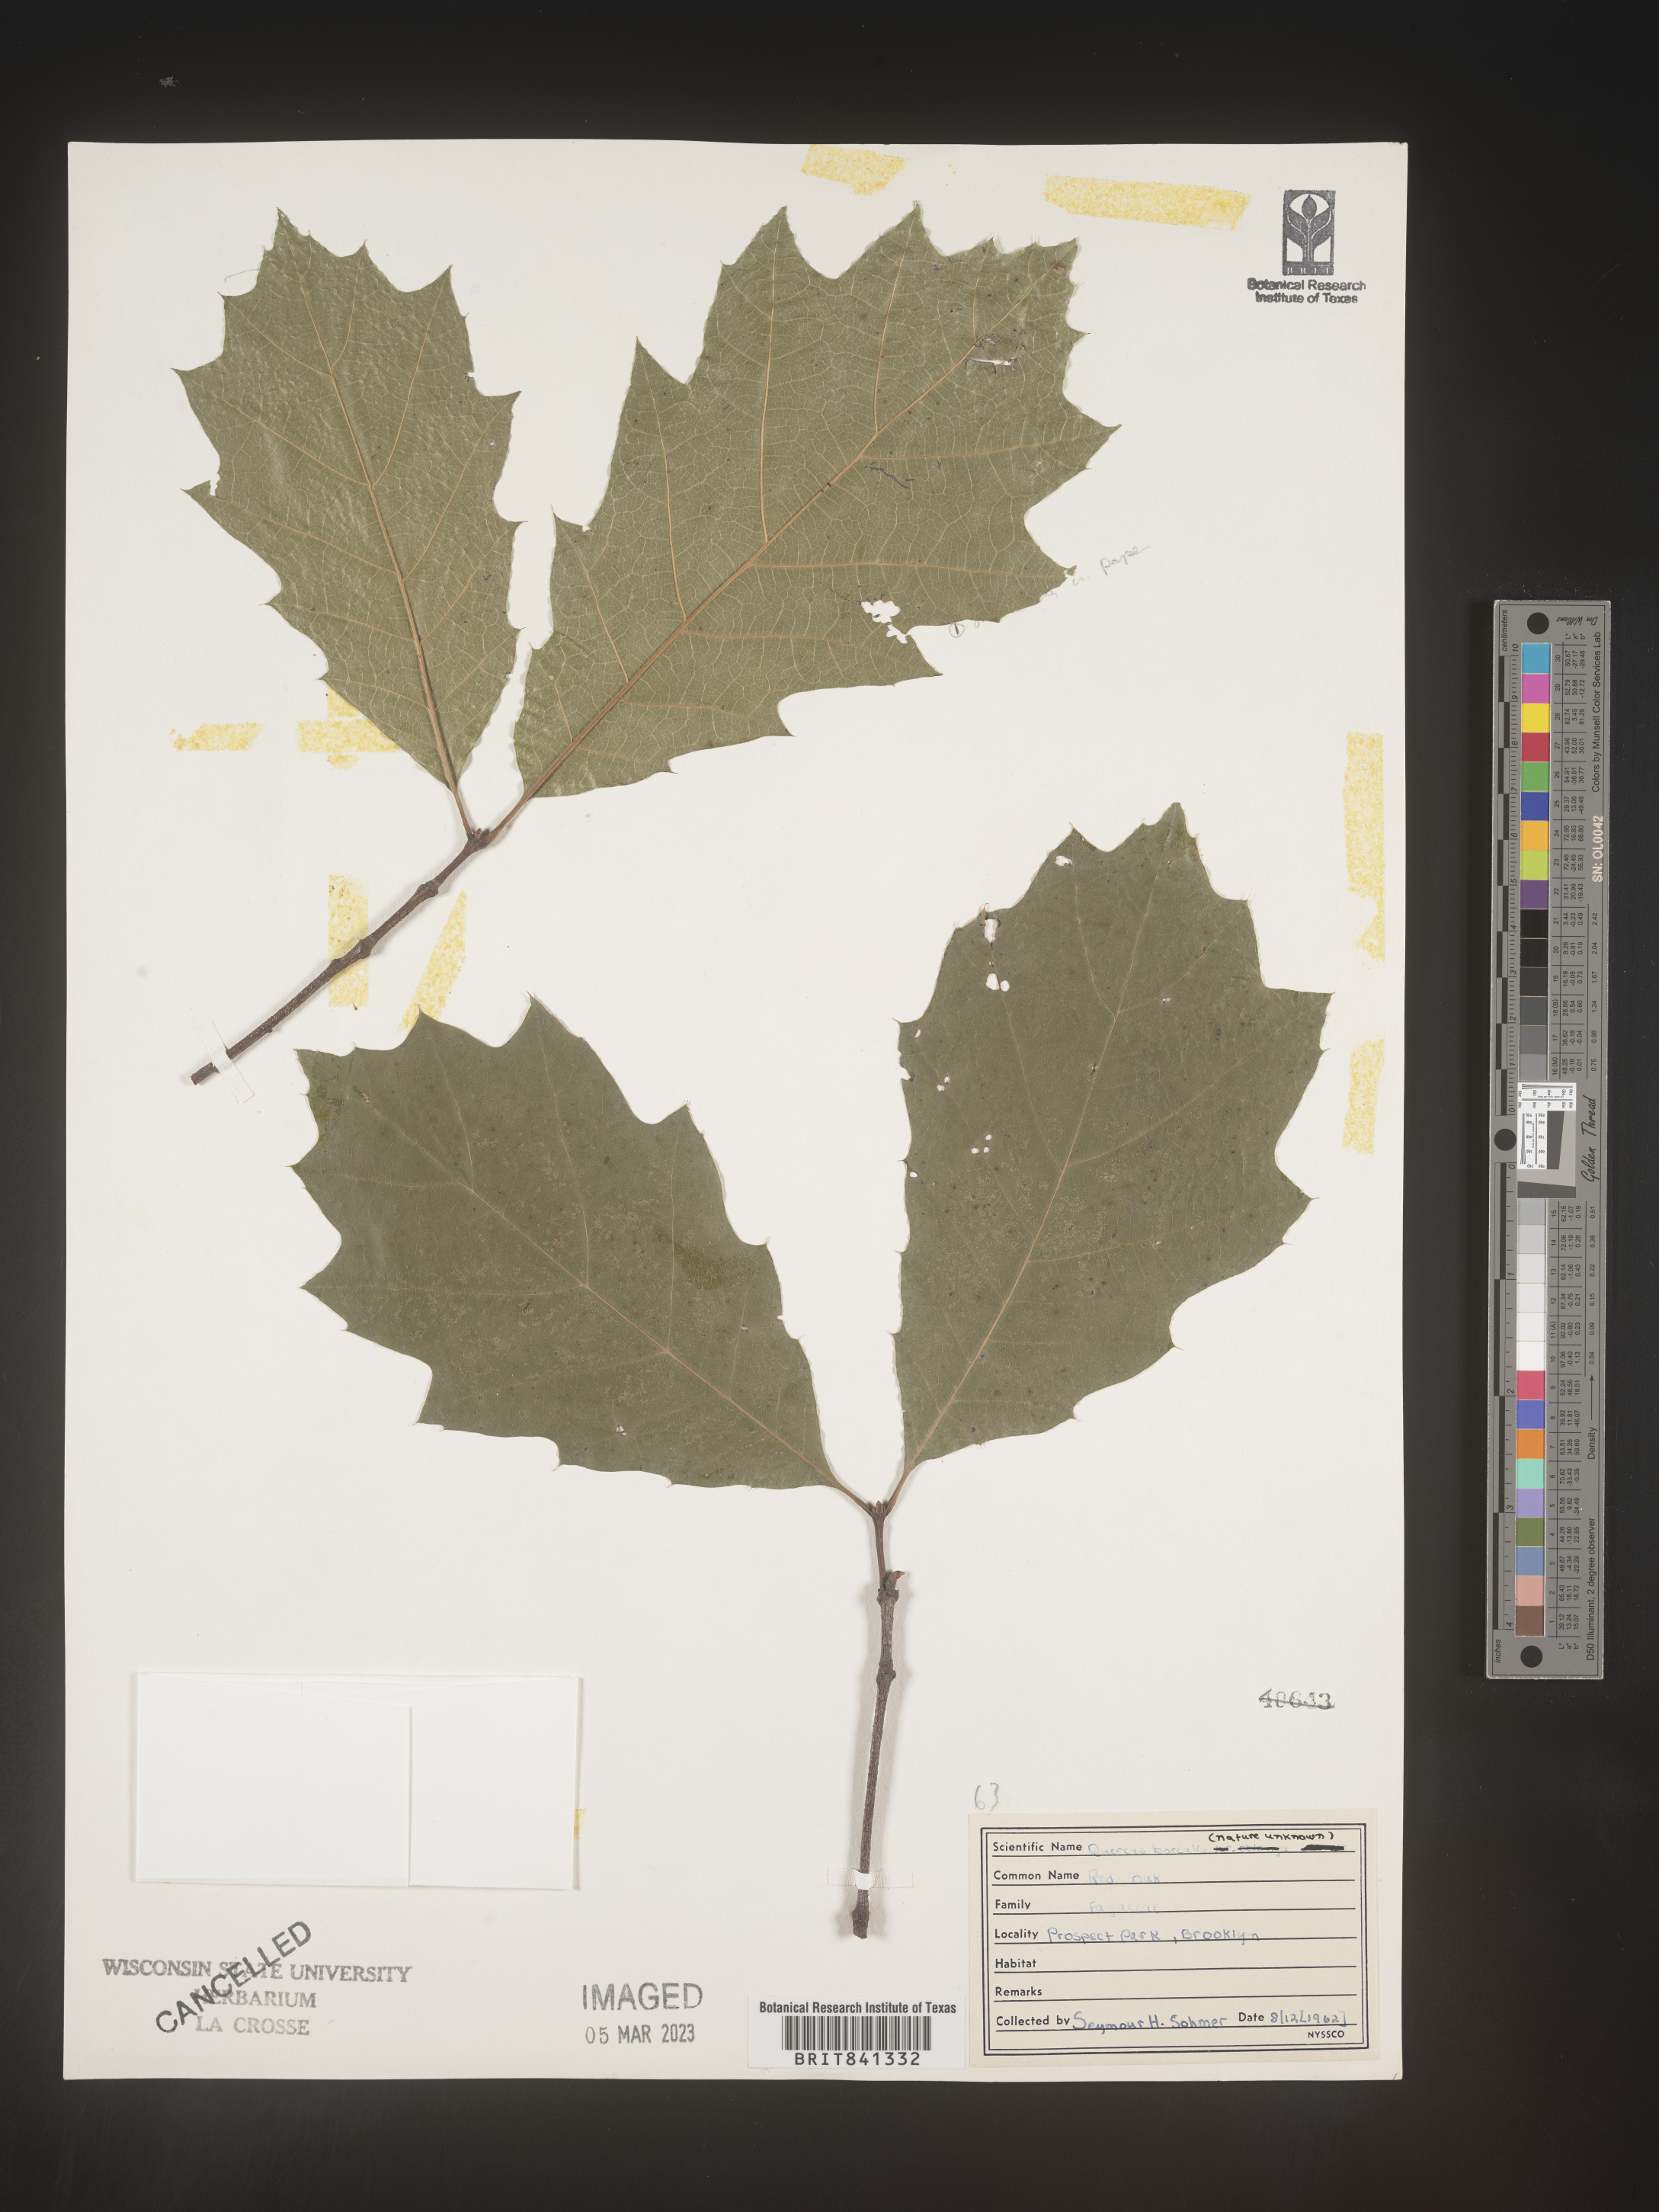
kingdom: Plantae
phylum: Tracheophyta
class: Magnoliopsida
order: Fagales
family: Fagaceae
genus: Quercus
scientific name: Quercus rubra
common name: Red oak
